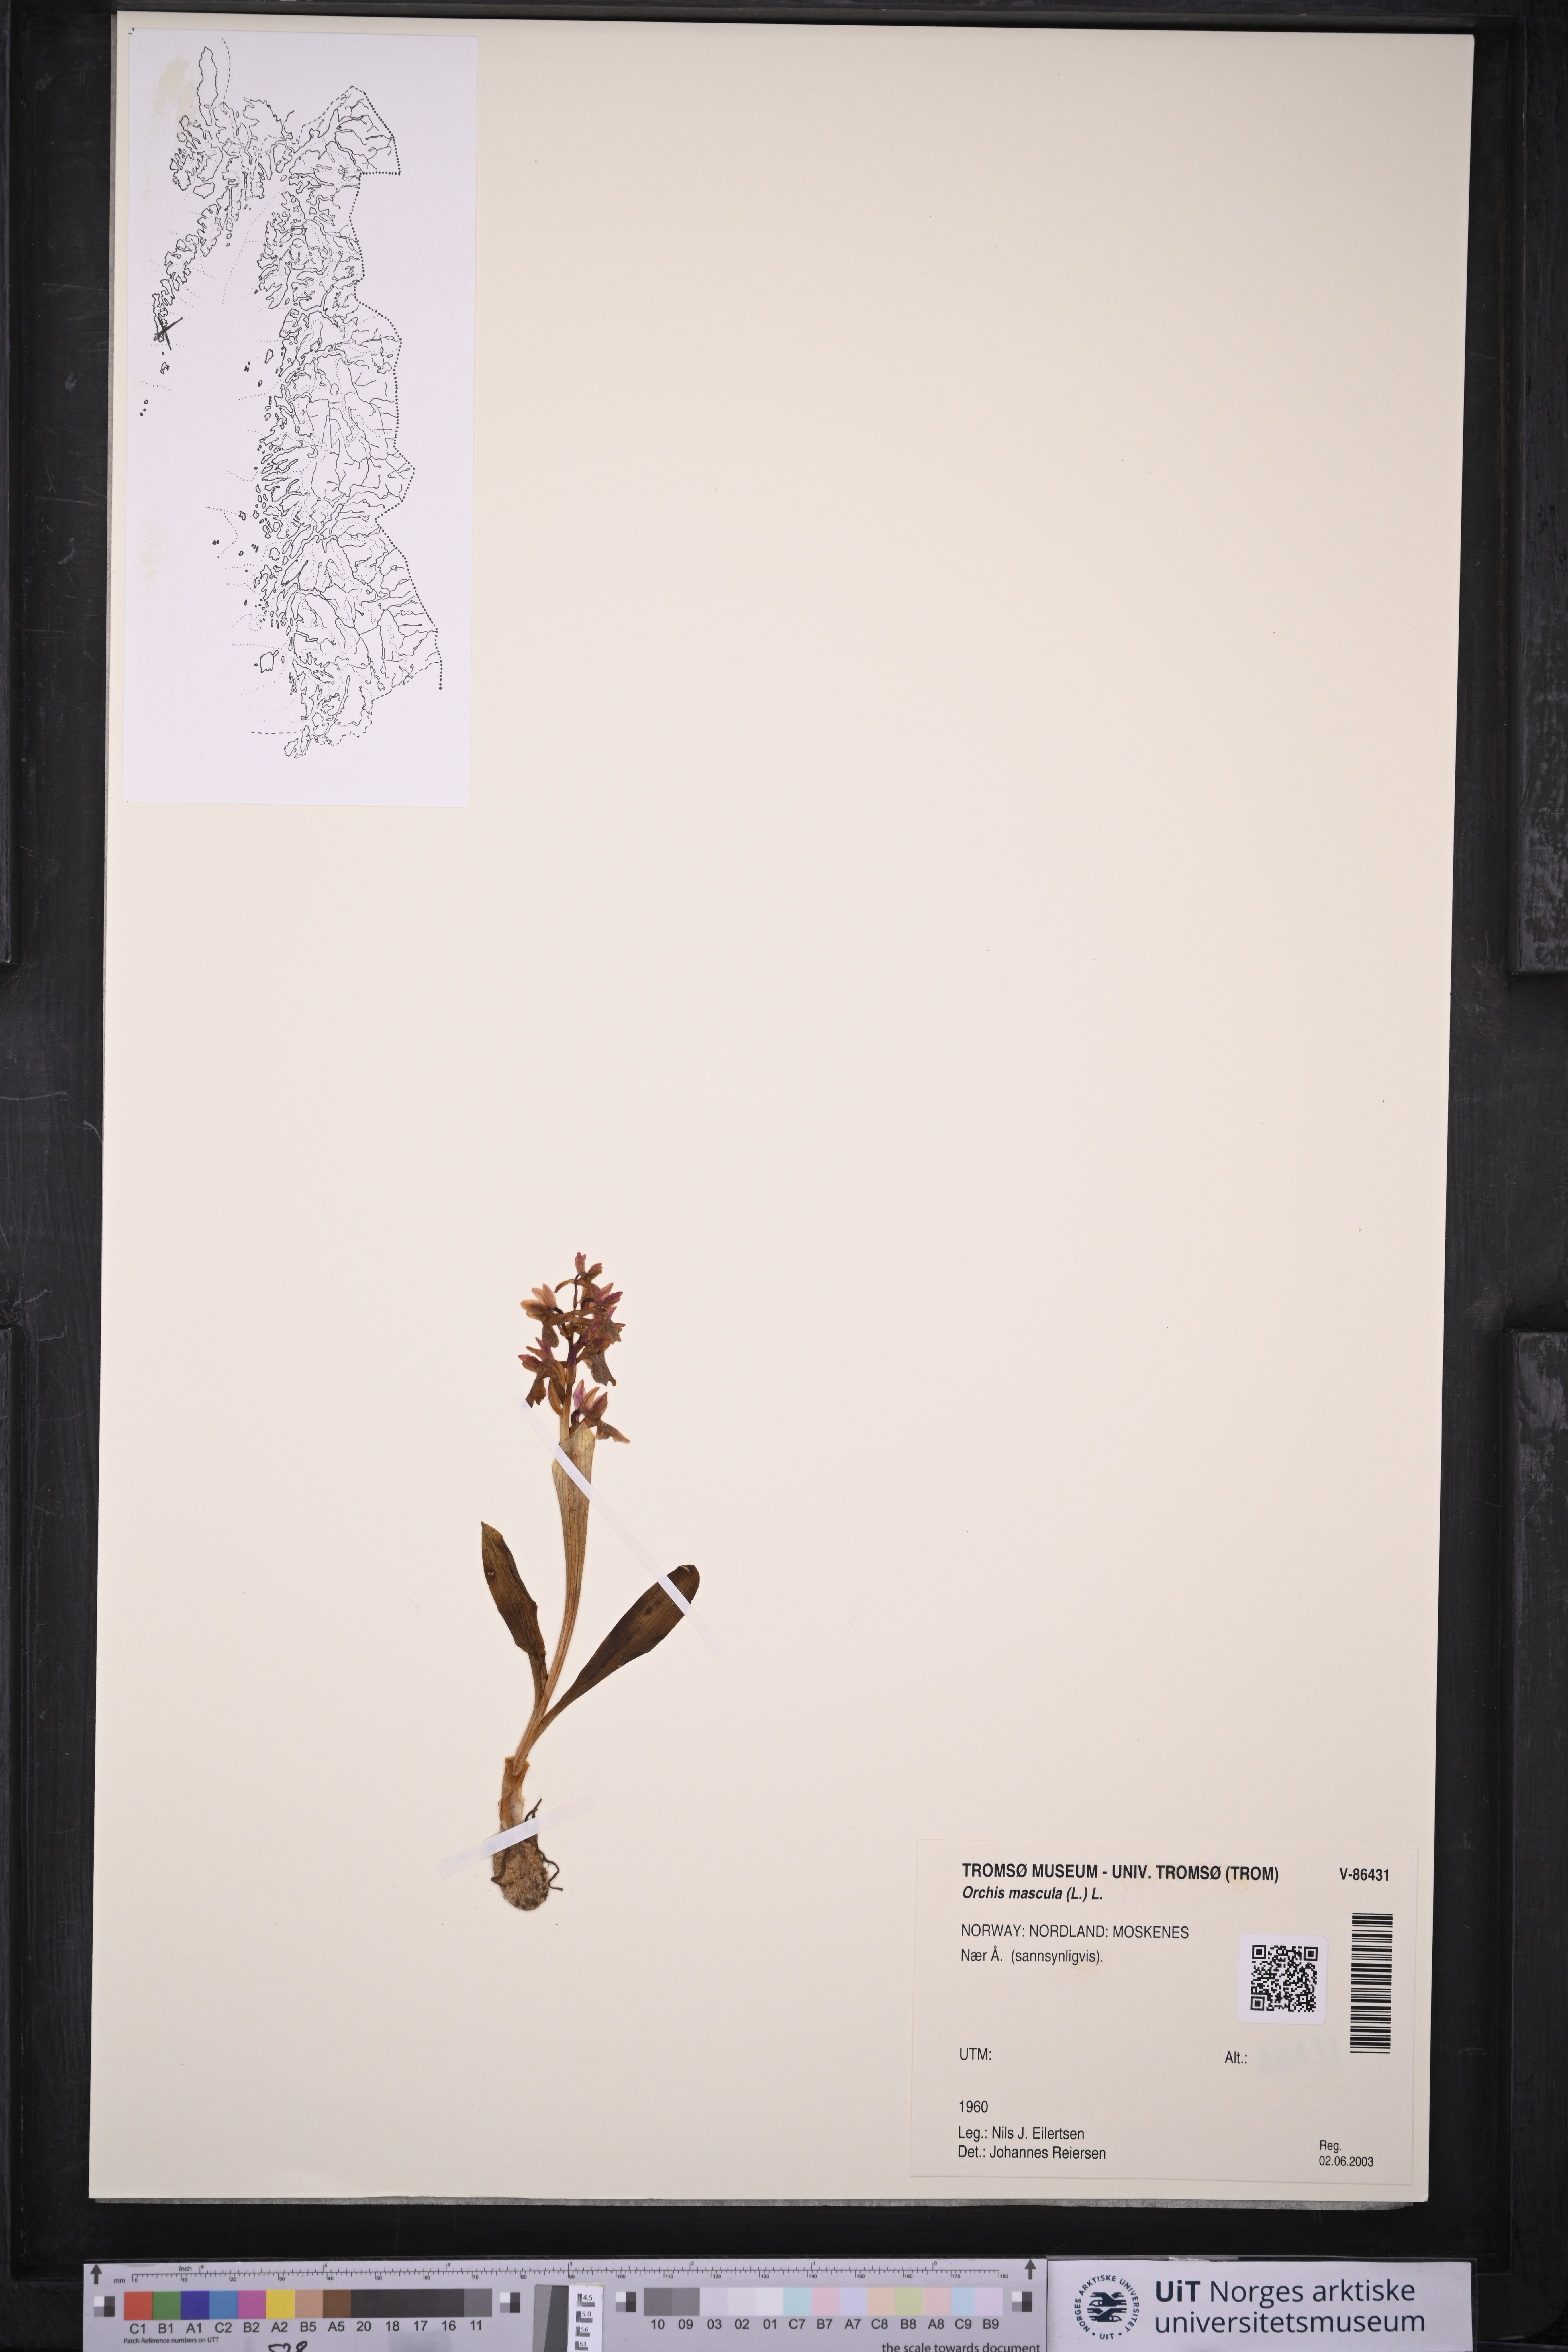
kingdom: Plantae
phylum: Tracheophyta
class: Liliopsida
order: Asparagales
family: Orchidaceae
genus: Orchis
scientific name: Orchis mascula
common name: Early-purple orchid
